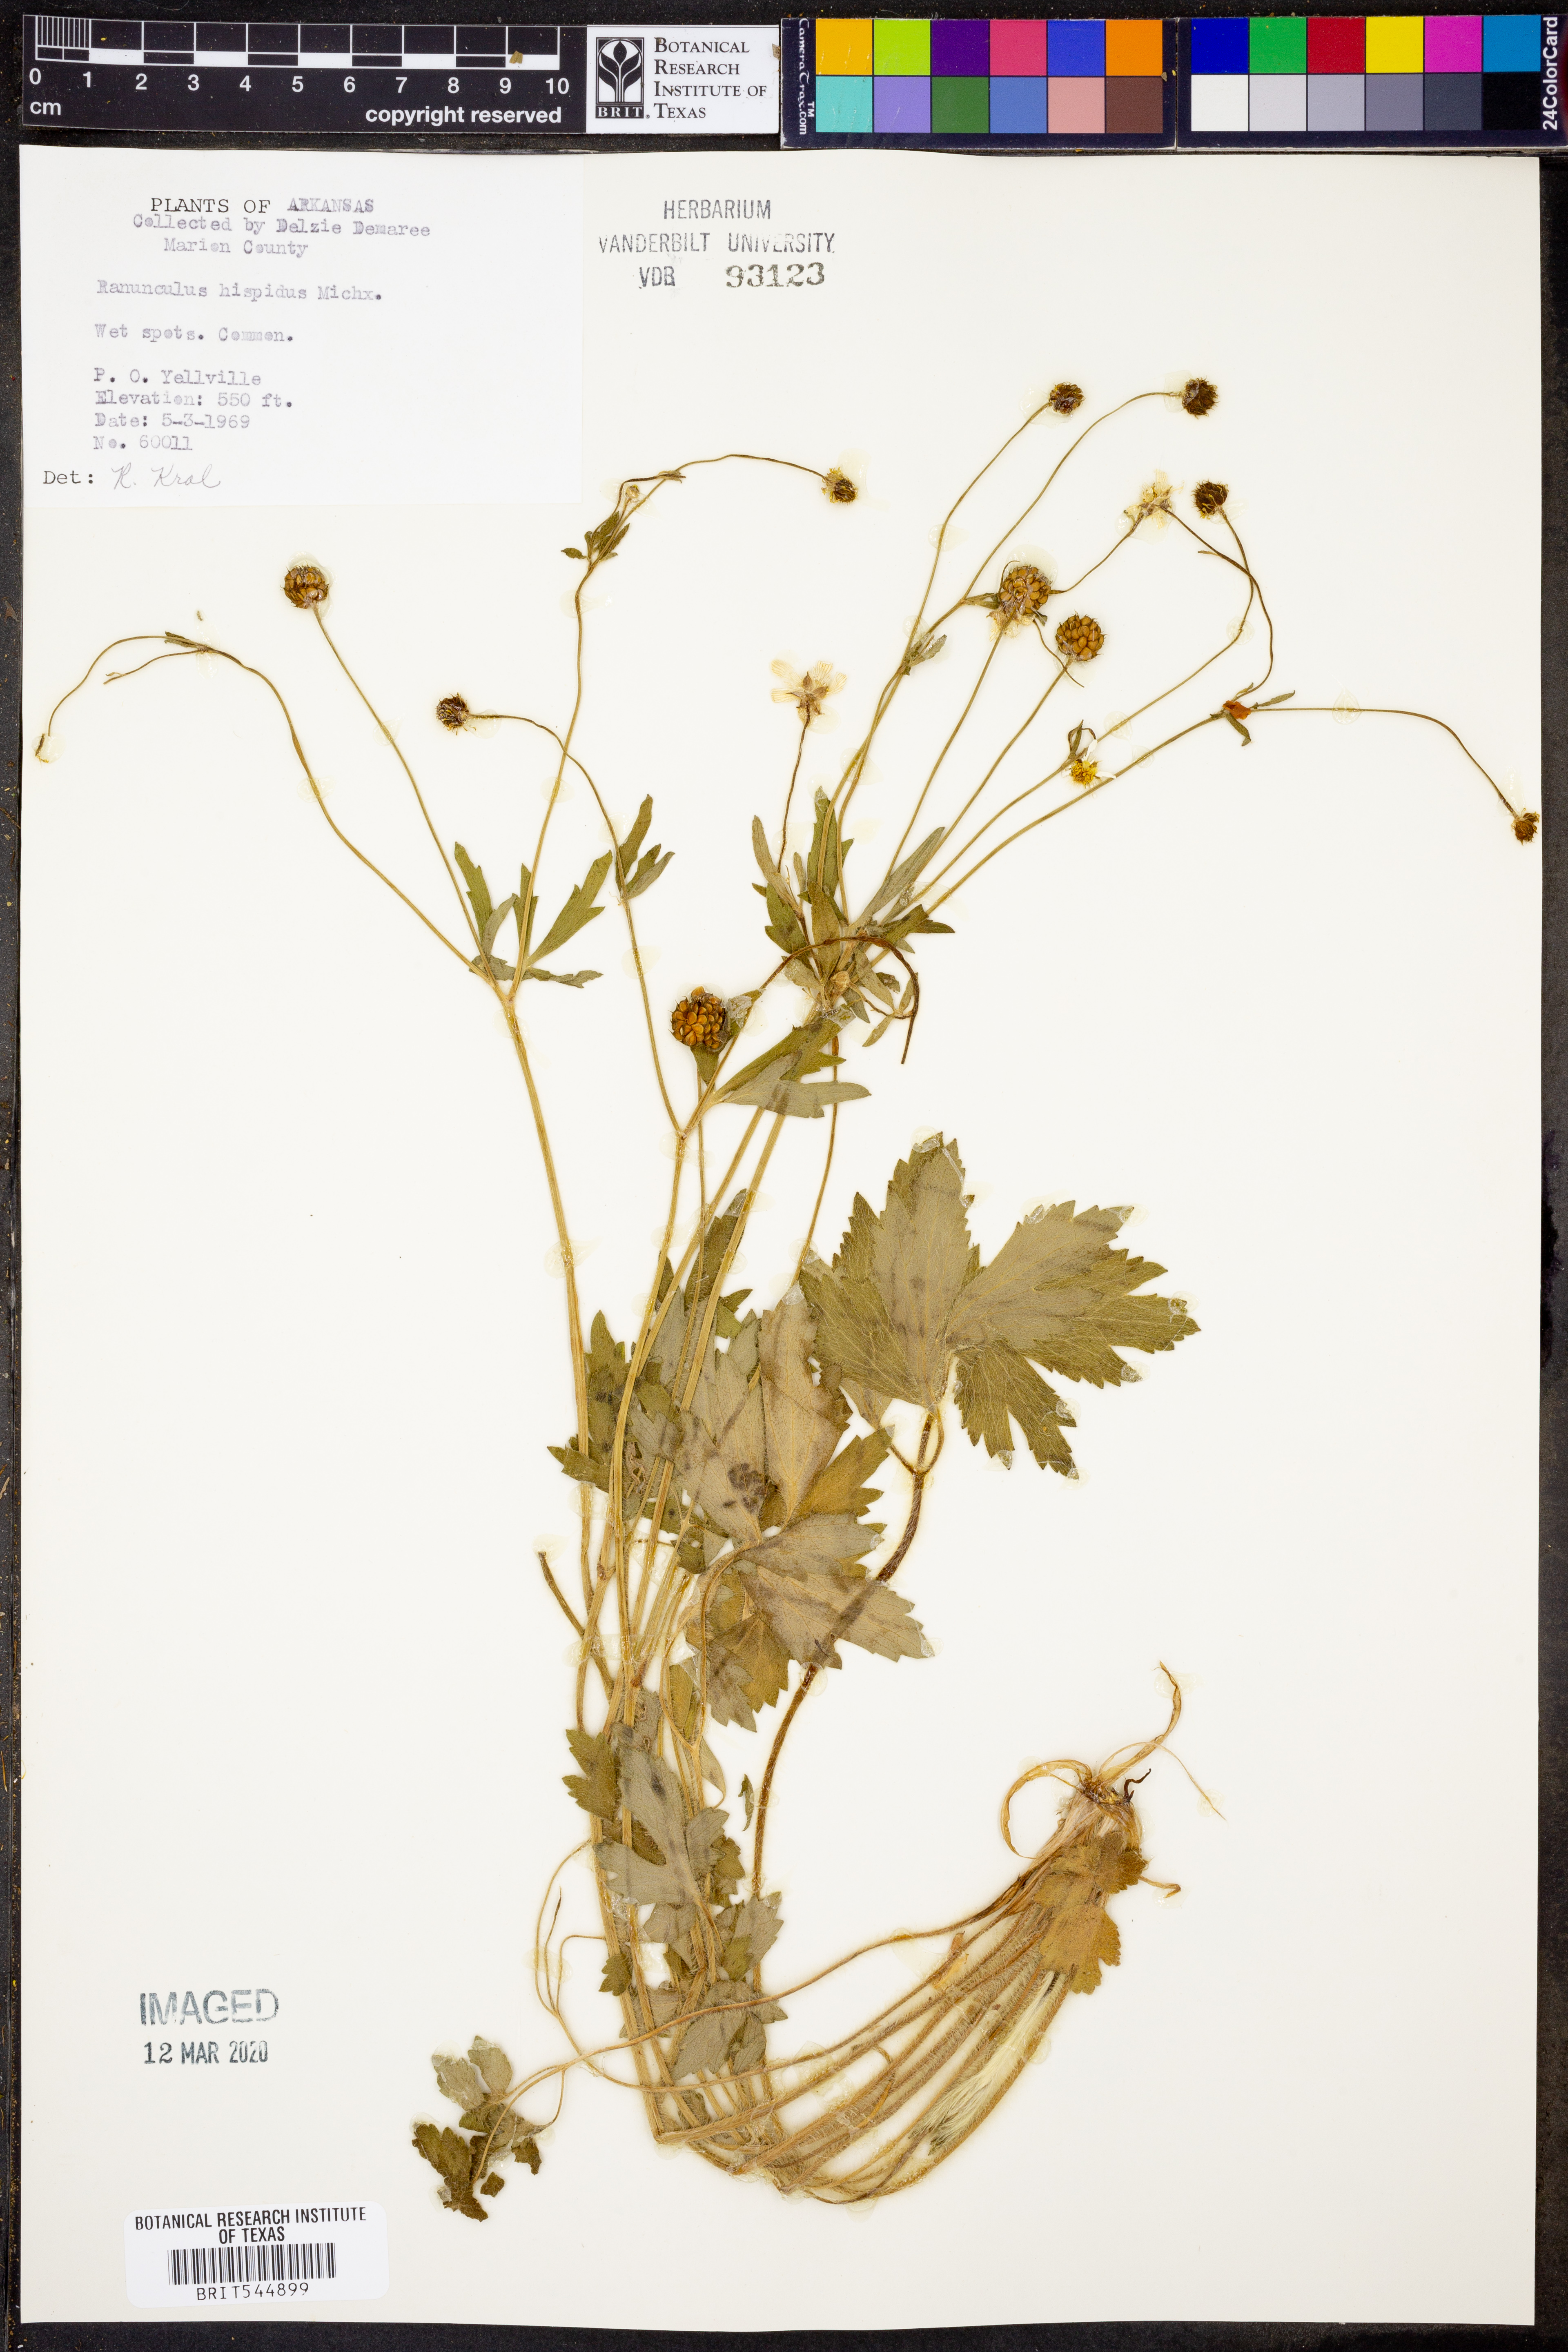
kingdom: Plantae
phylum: Tracheophyta
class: Magnoliopsida
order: Ranunculales
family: Ranunculaceae
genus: Ranunculus
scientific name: Ranunculus hispidus
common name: Bristly buttercup
